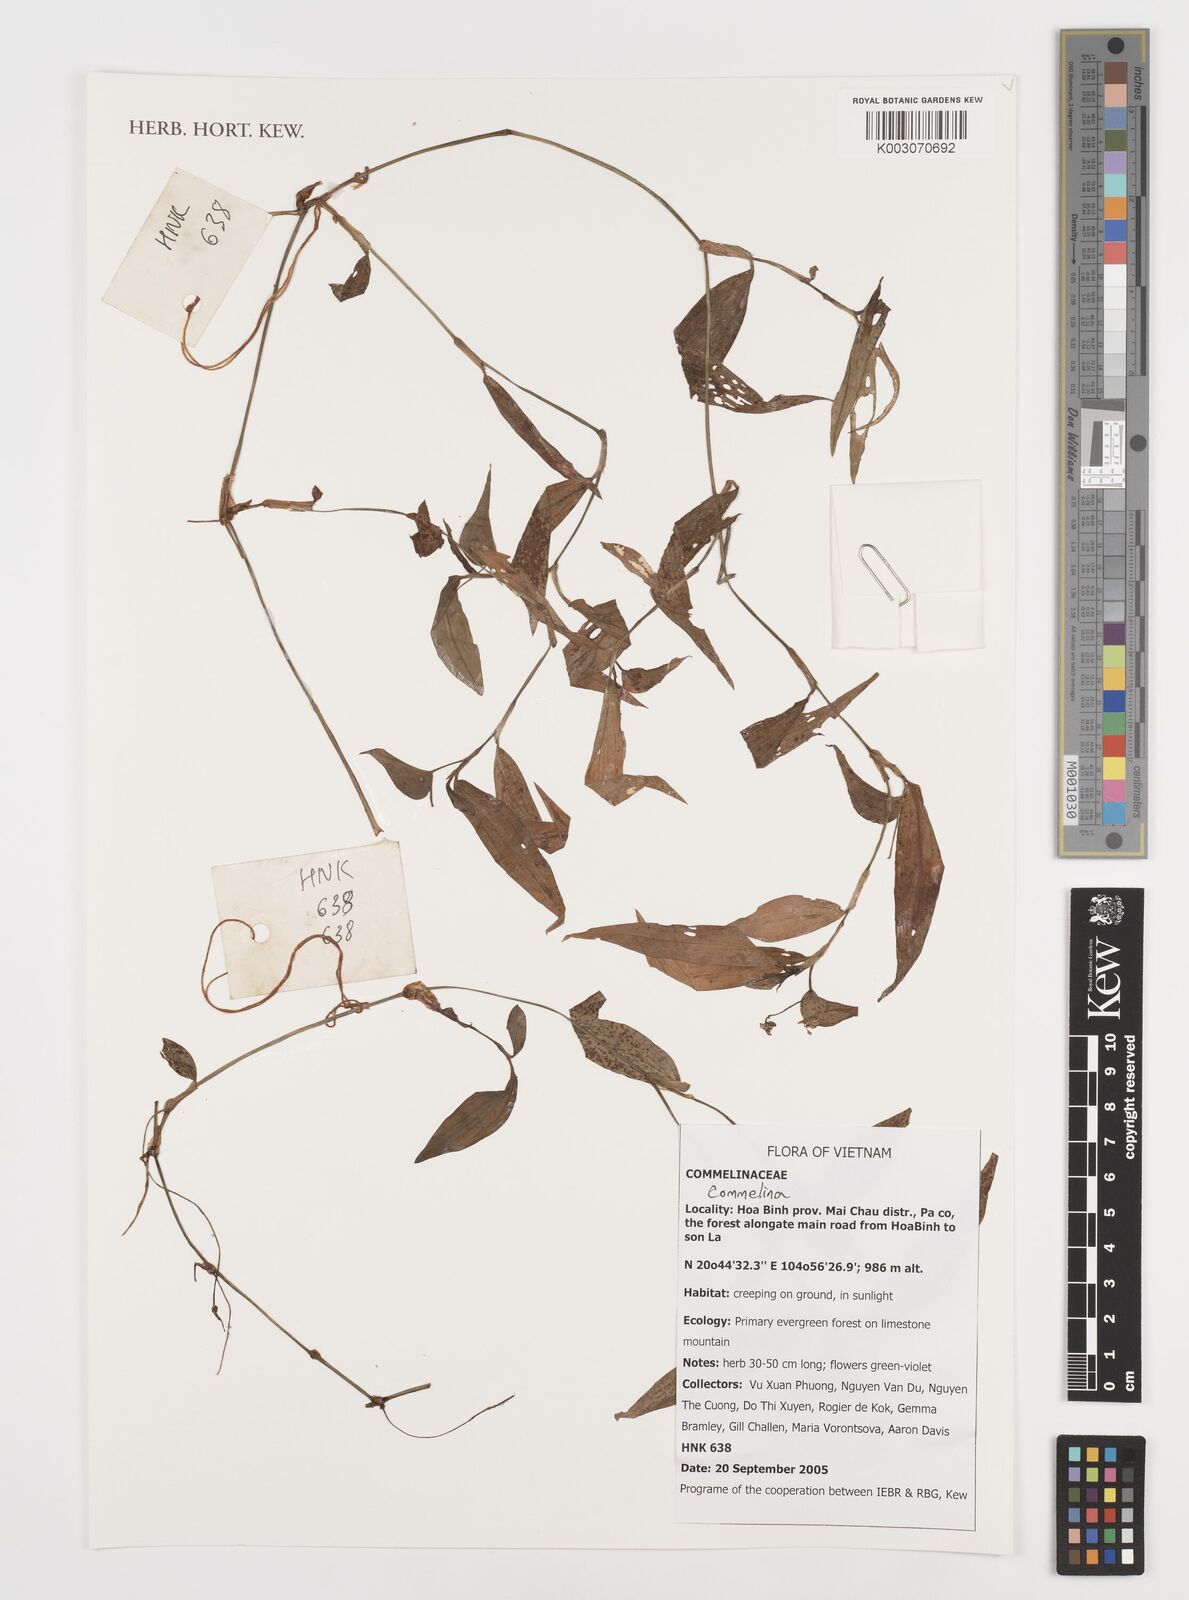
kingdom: Plantae
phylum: Tracheophyta
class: Liliopsida
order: Commelinales
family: Commelinaceae
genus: Commelina
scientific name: Commelina
